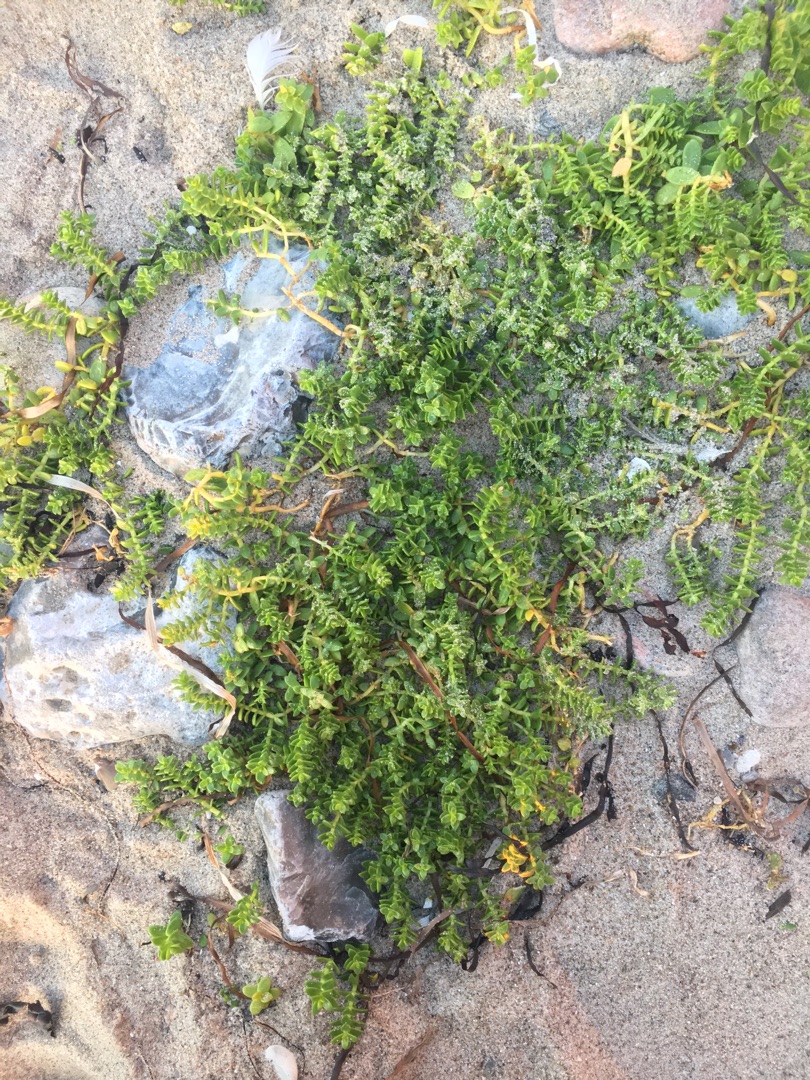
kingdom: Plantae
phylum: Tracheophyta
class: Magnoliopsida
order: Caryophyllales
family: Caryophyllaceae
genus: Honckenya
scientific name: Honckenya peploides
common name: Strandarve
